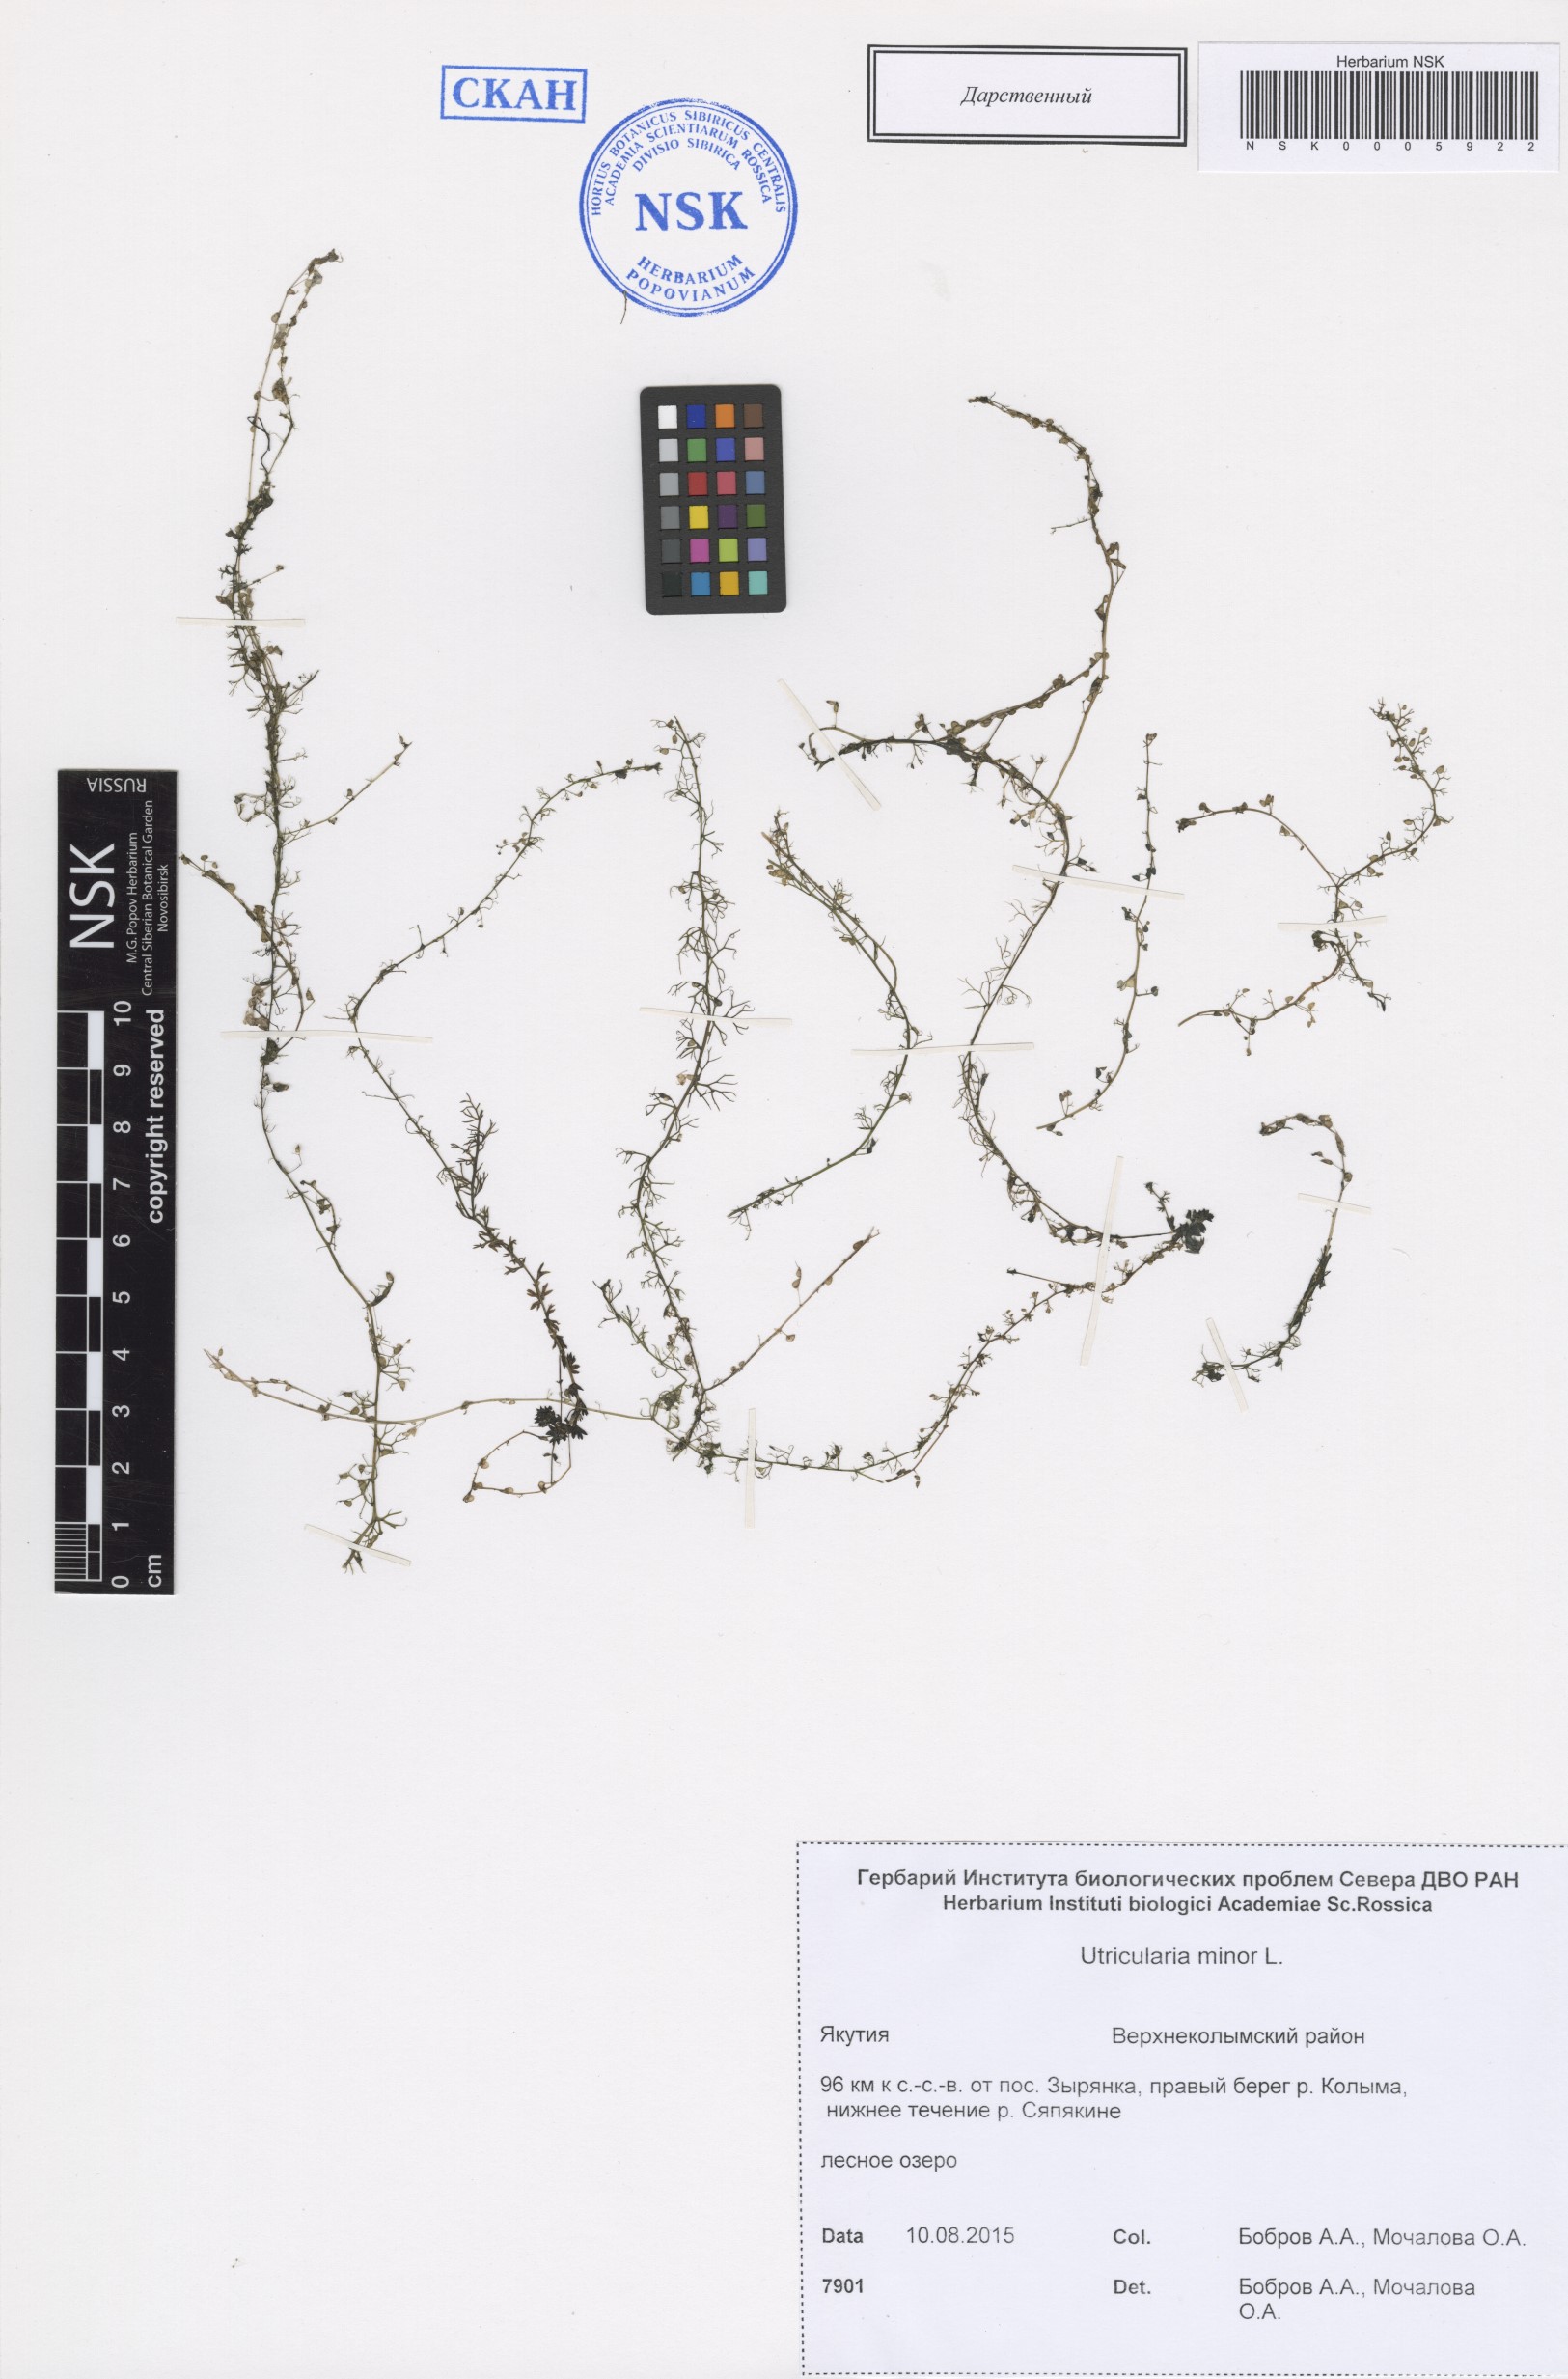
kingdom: Plantae
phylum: Tracheophyta
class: Magnoliopsida
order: Lamiales
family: Lentibulariaceae
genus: Utricularia
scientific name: Utricularia minor
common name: Lesser bladderwort
